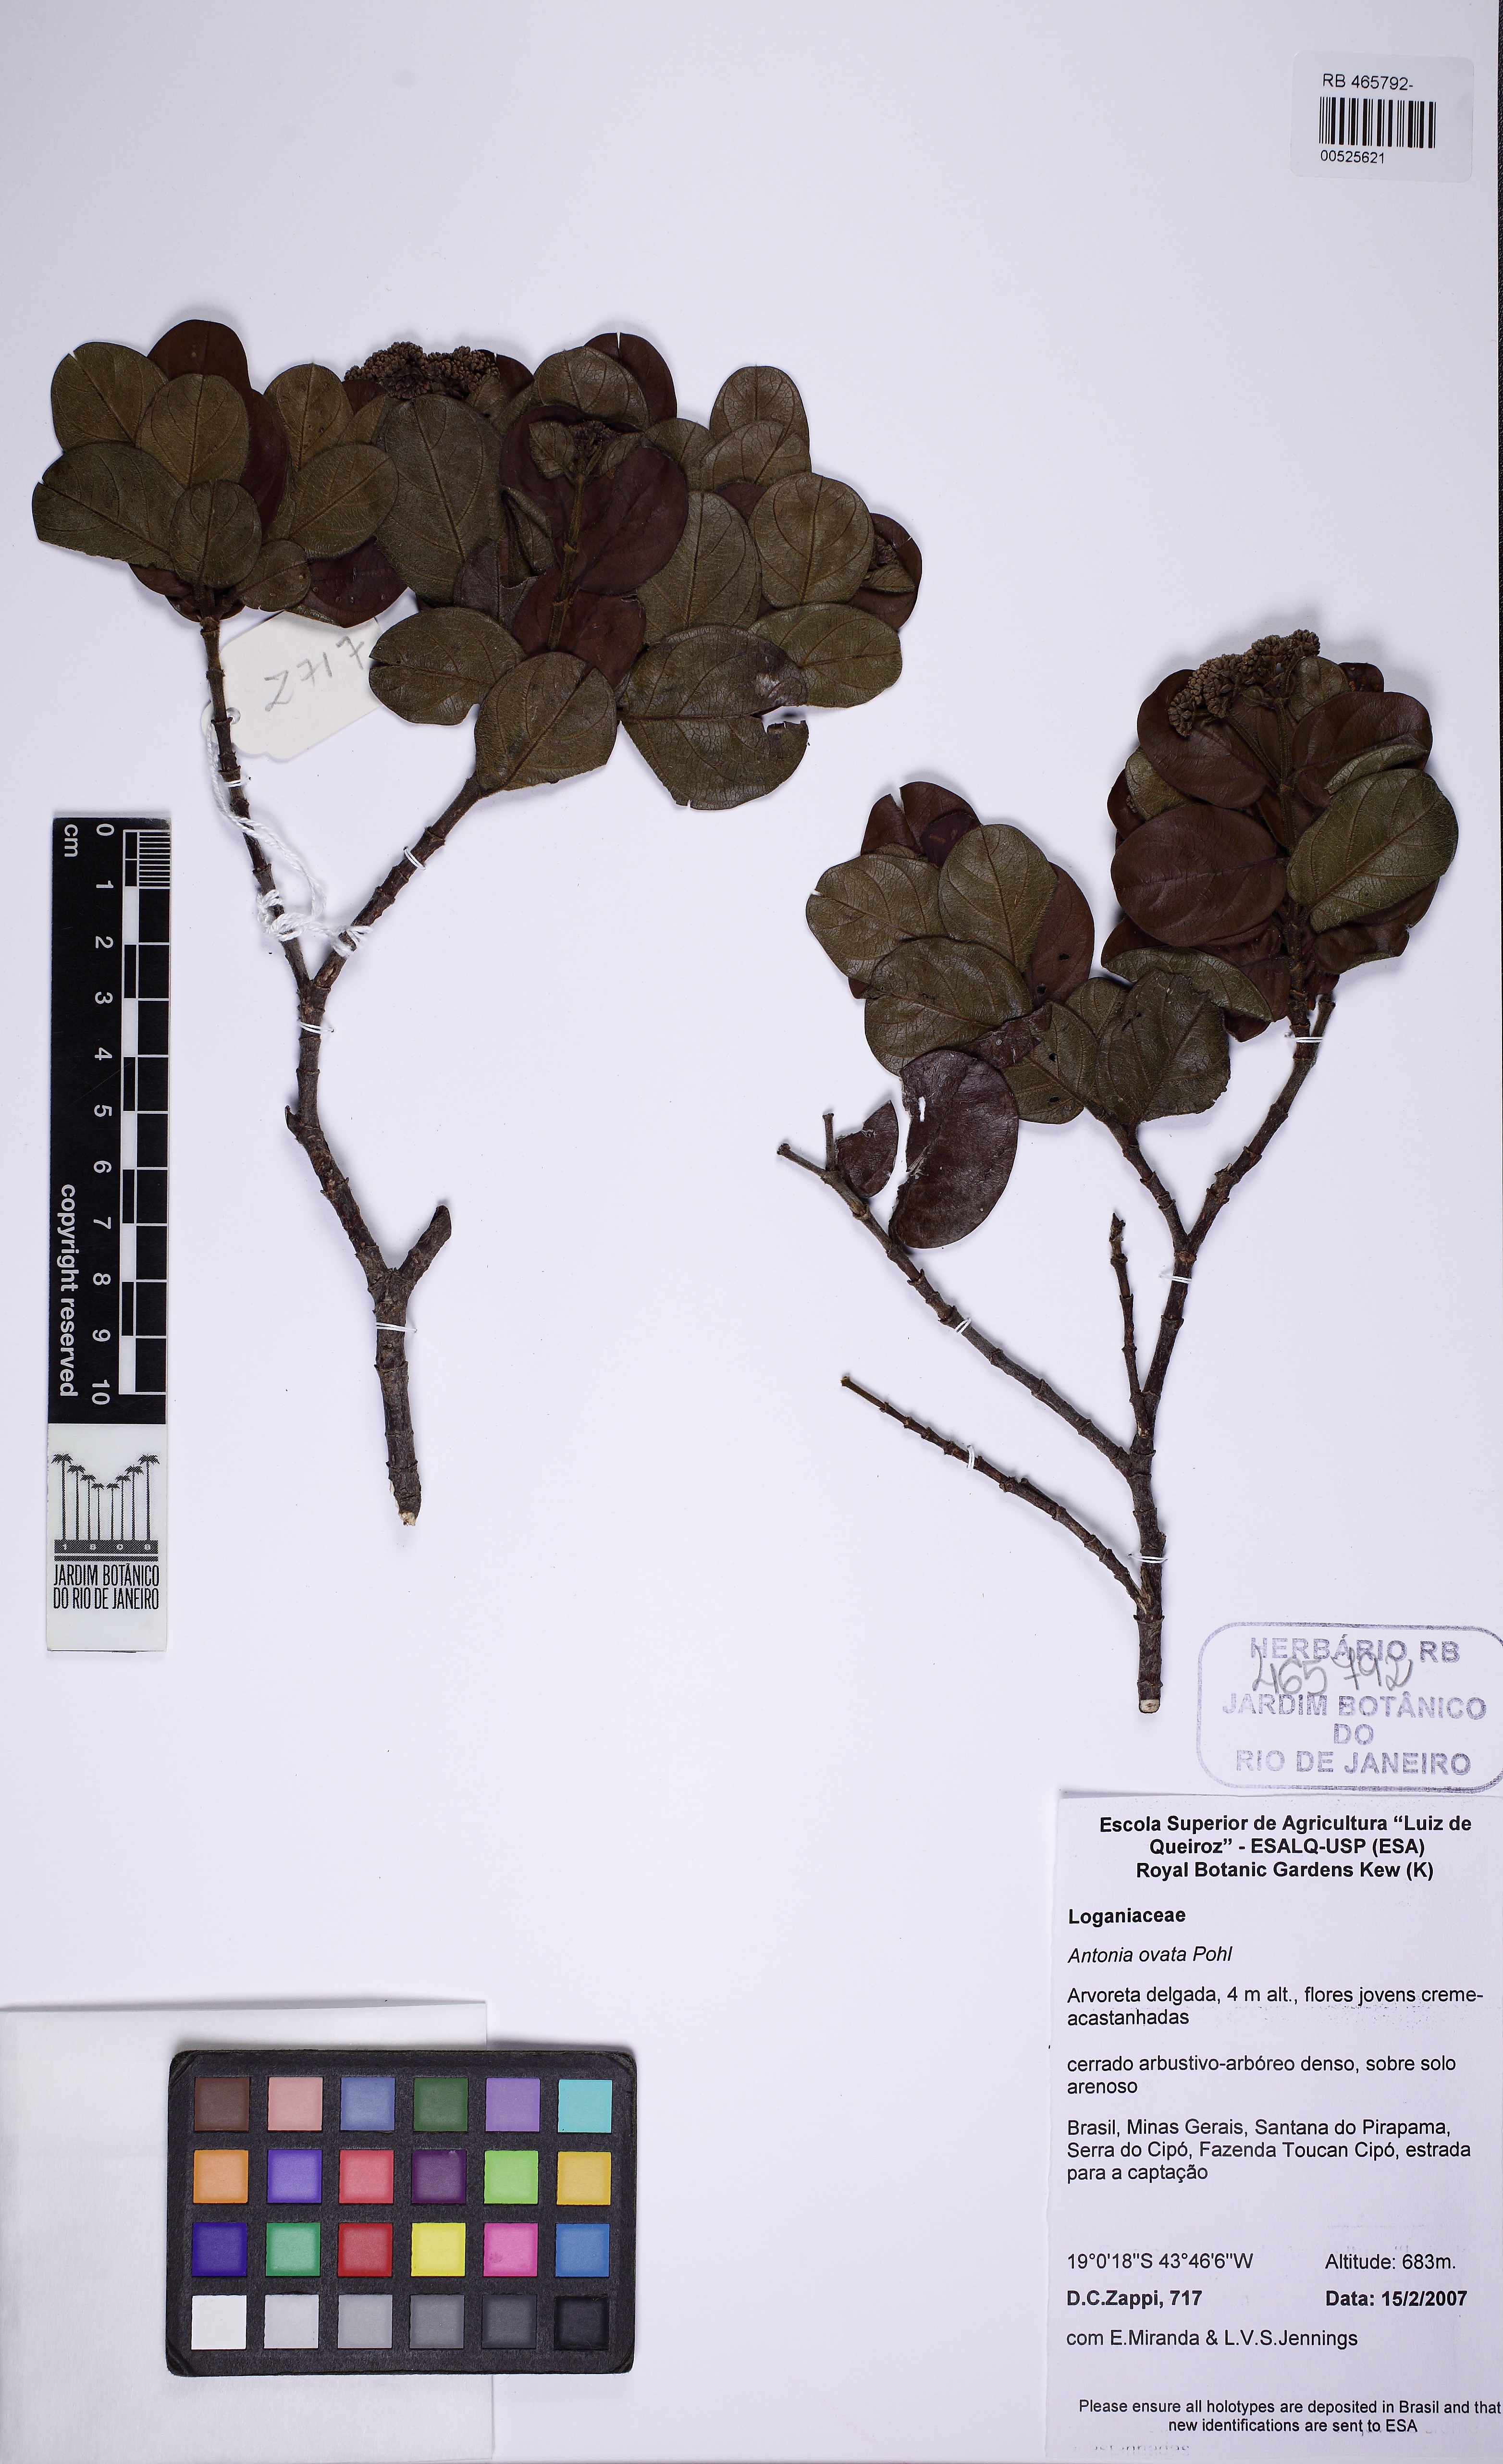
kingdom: Plantae
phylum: Tracheophyta
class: Magnoliopsida
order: Gentianales
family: Loganiaceae
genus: Antonia
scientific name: Antonia ovata
